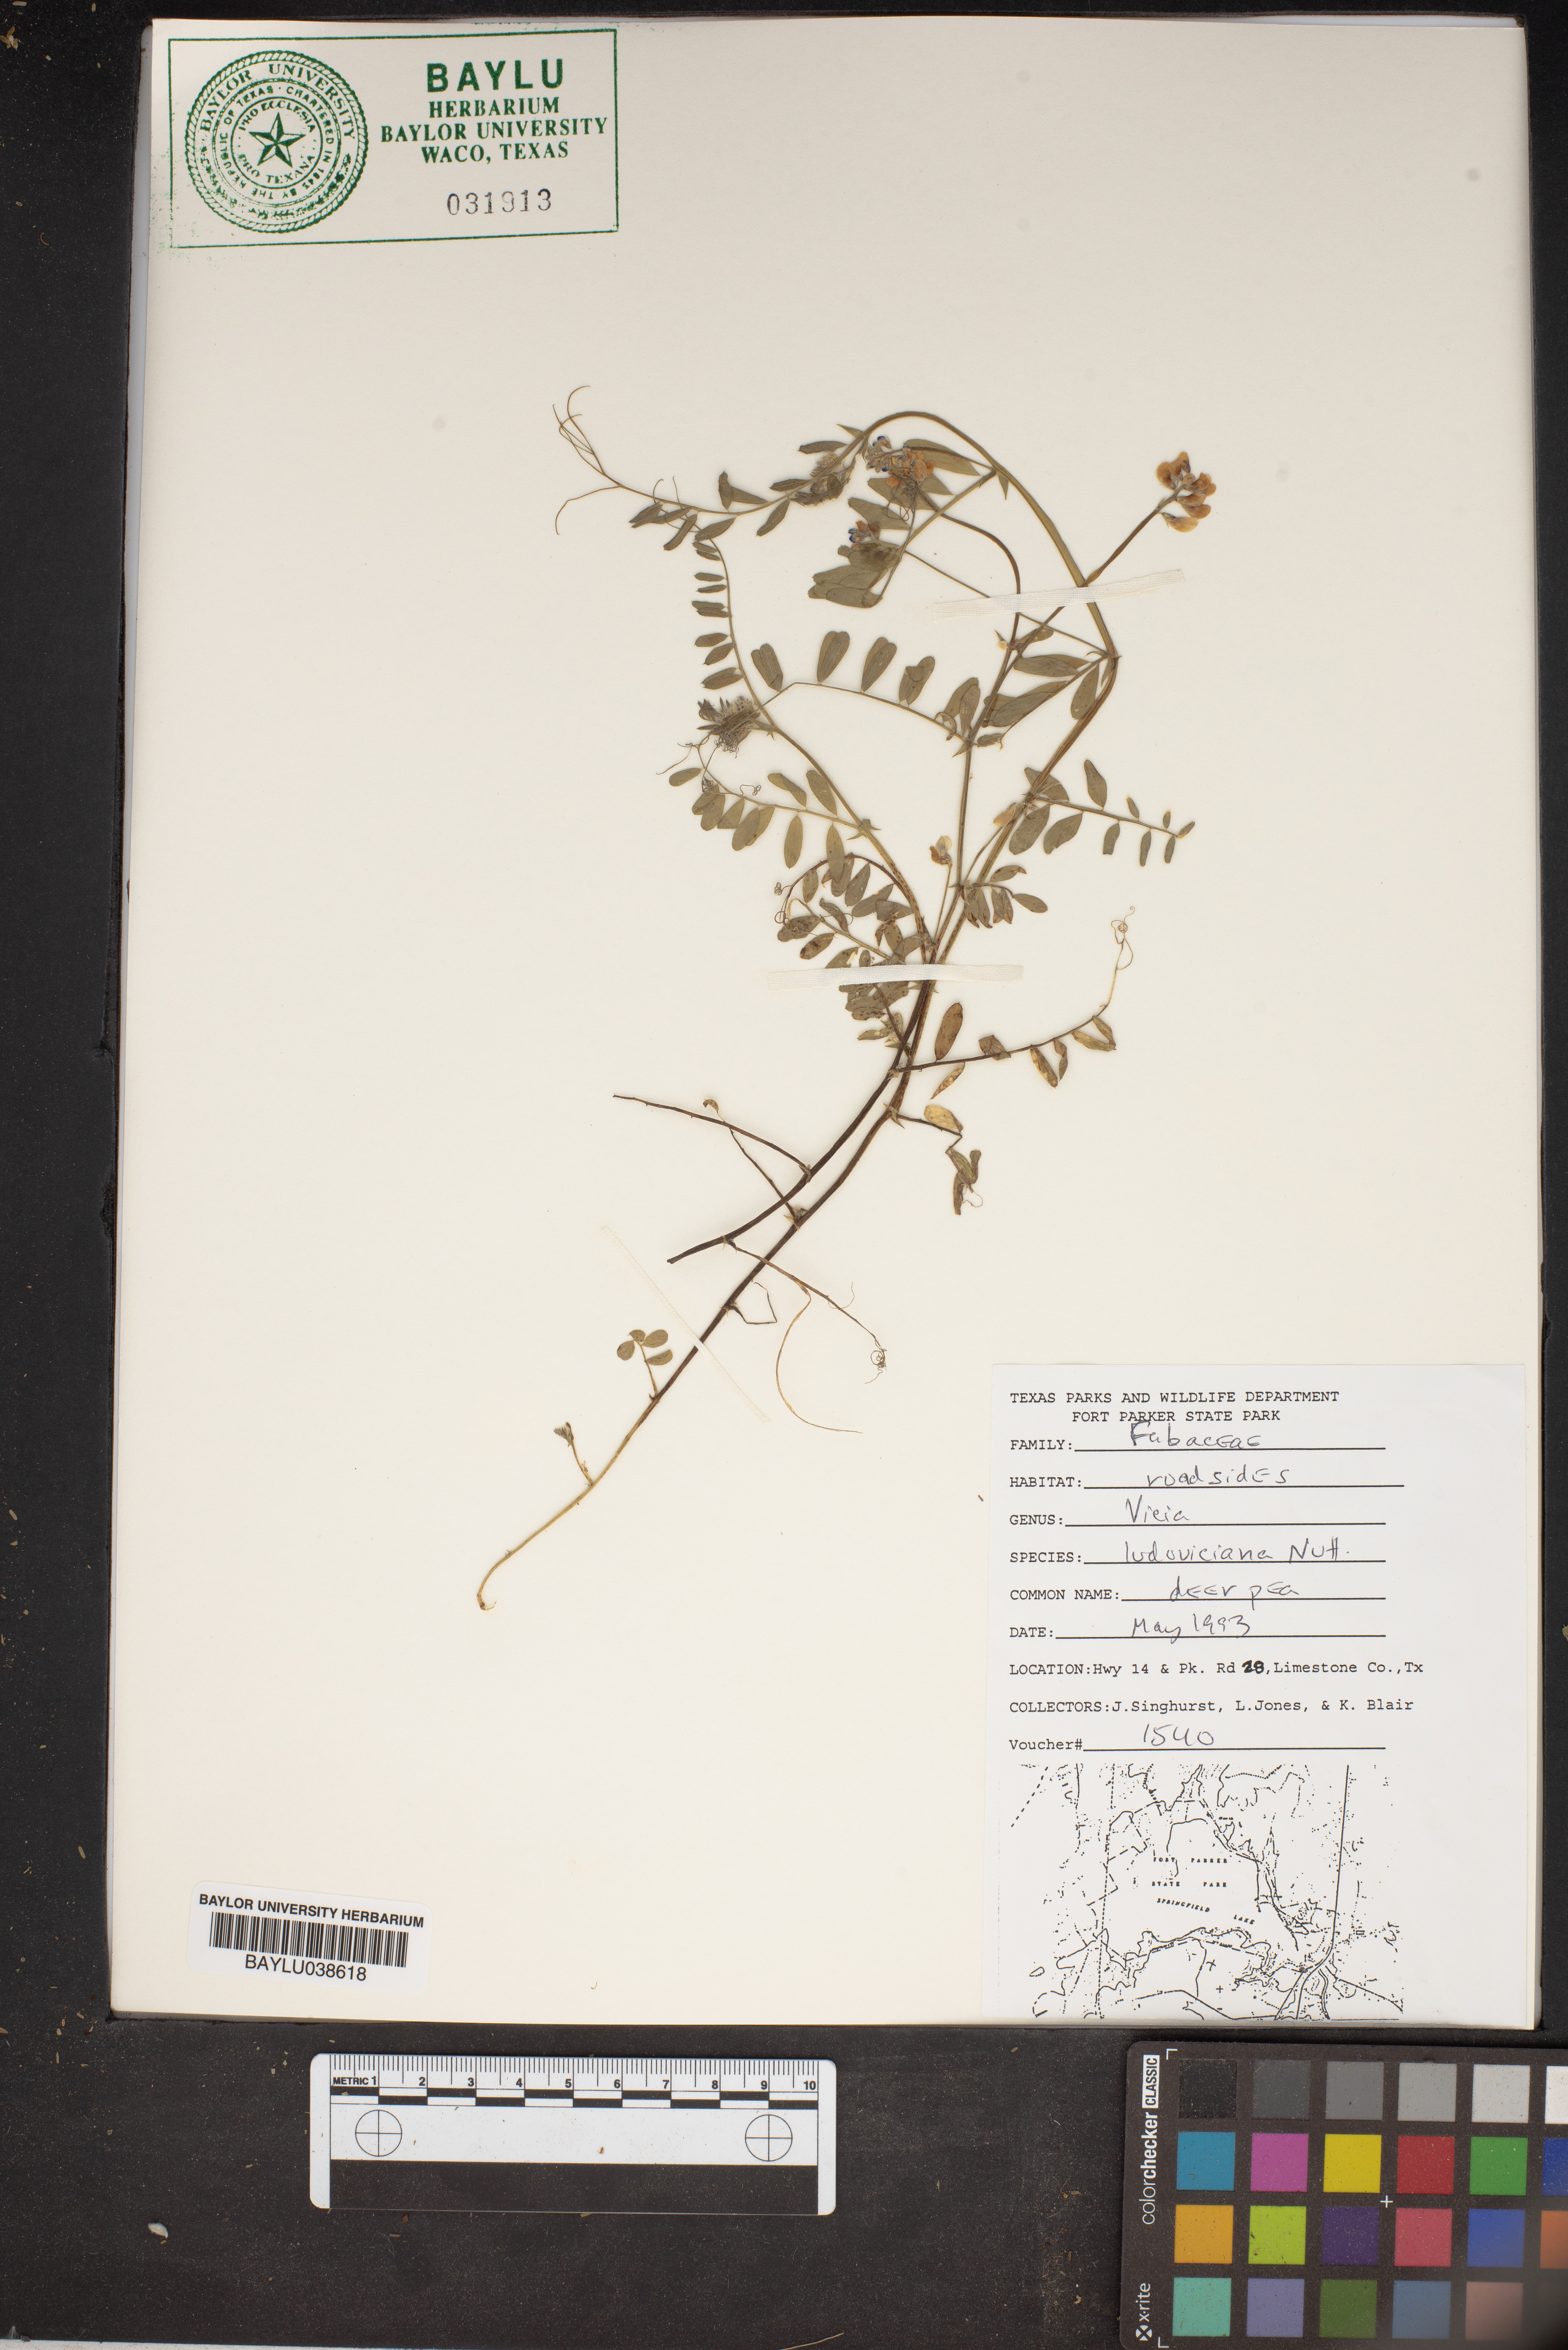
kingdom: Plantae
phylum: Tracheophyta
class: Magnoliopsida
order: Fabales
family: Fabaceae
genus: Vicia
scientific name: Vicia ludoviciana
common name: Louisiana vetch
